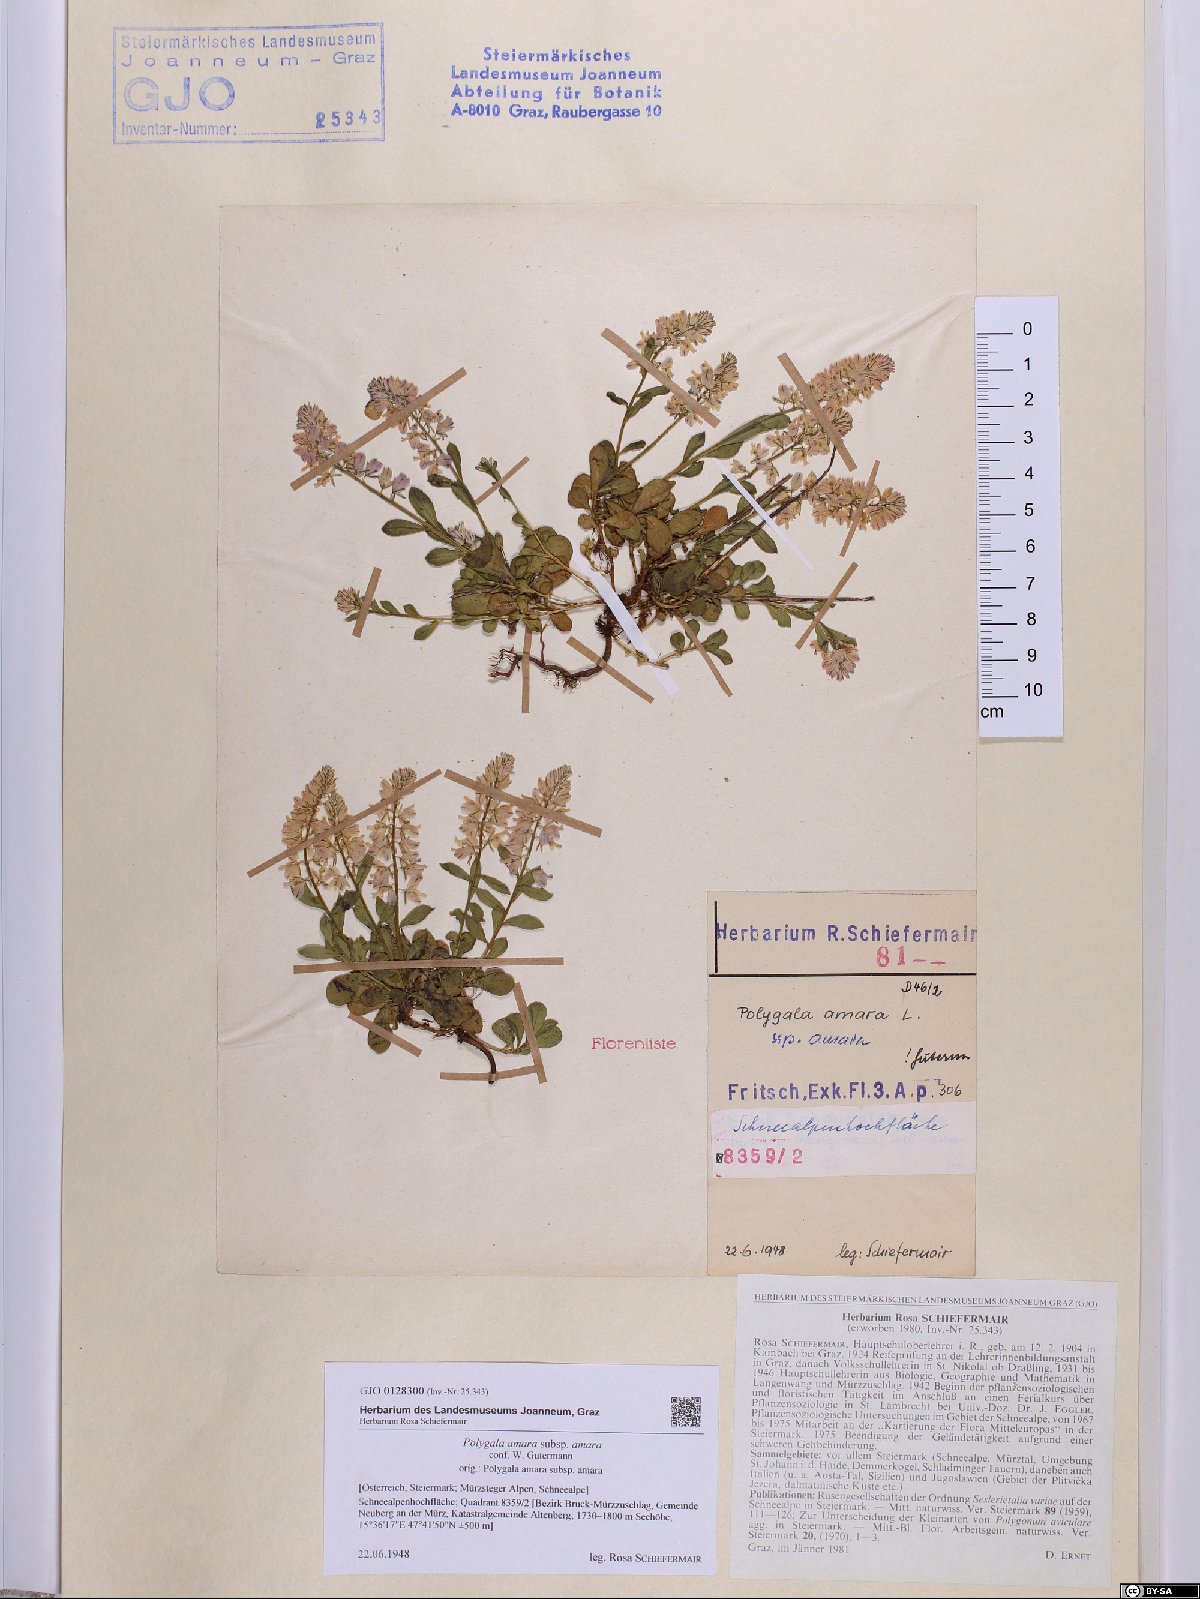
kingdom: Plantae
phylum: Tracheophyta
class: Magnoliopsida
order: Fabales
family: Polygalaceae
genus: Polygala
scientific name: Polygala amara
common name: Milkwort
